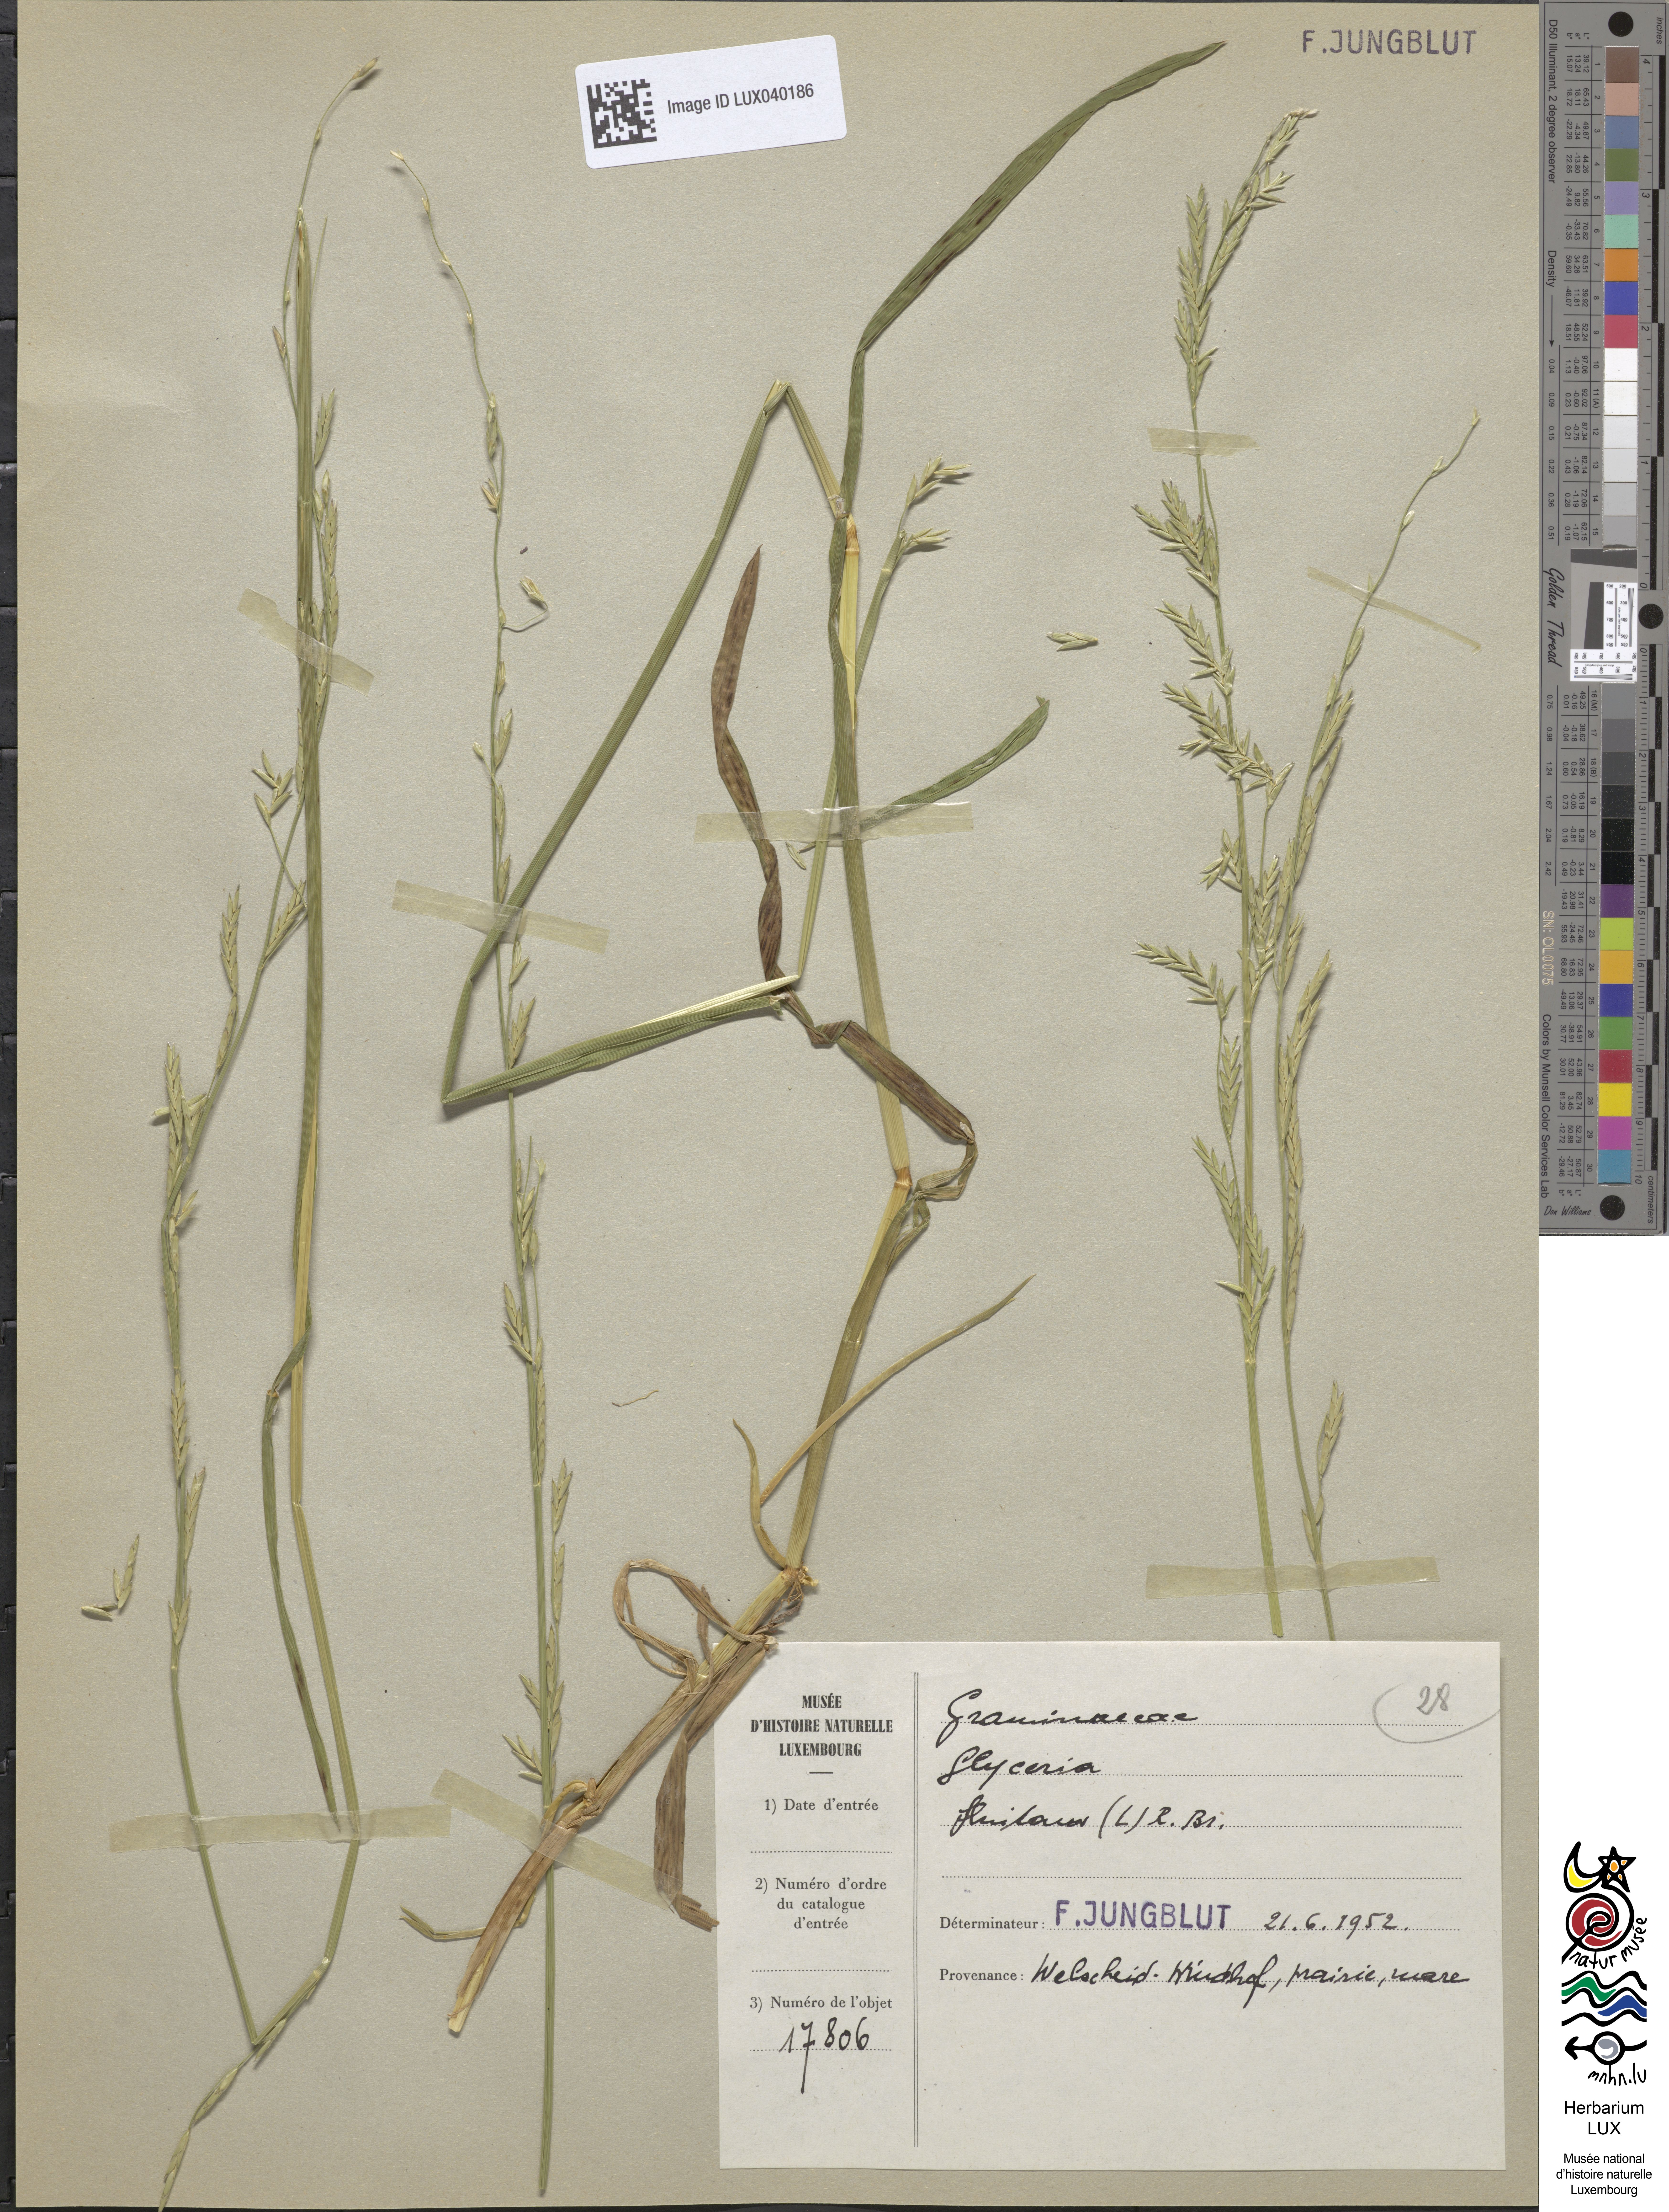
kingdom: Plantae
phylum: Tracheophyta
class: Liliopsida
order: Poales
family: Poaceae
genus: Glyceria
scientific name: Glyceria fluitans
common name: Floating sweet-grass
